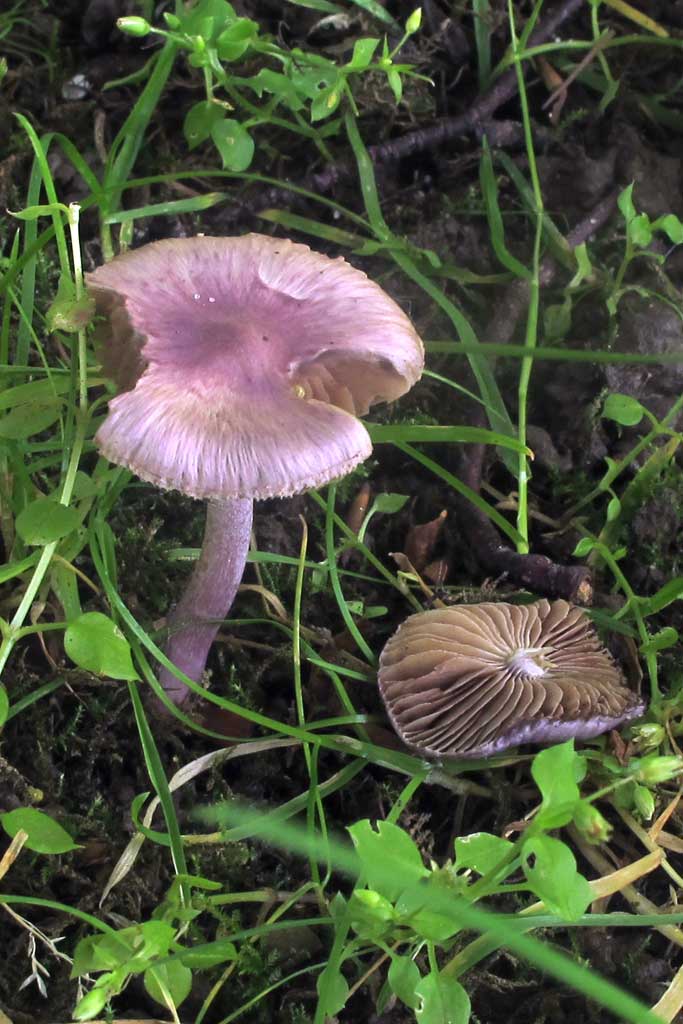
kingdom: Fungi
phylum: Basidiomycota
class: Agaricomycetes
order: Agaricales
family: Inocybaceae
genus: Inocybe
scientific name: Inocybe geophylla
